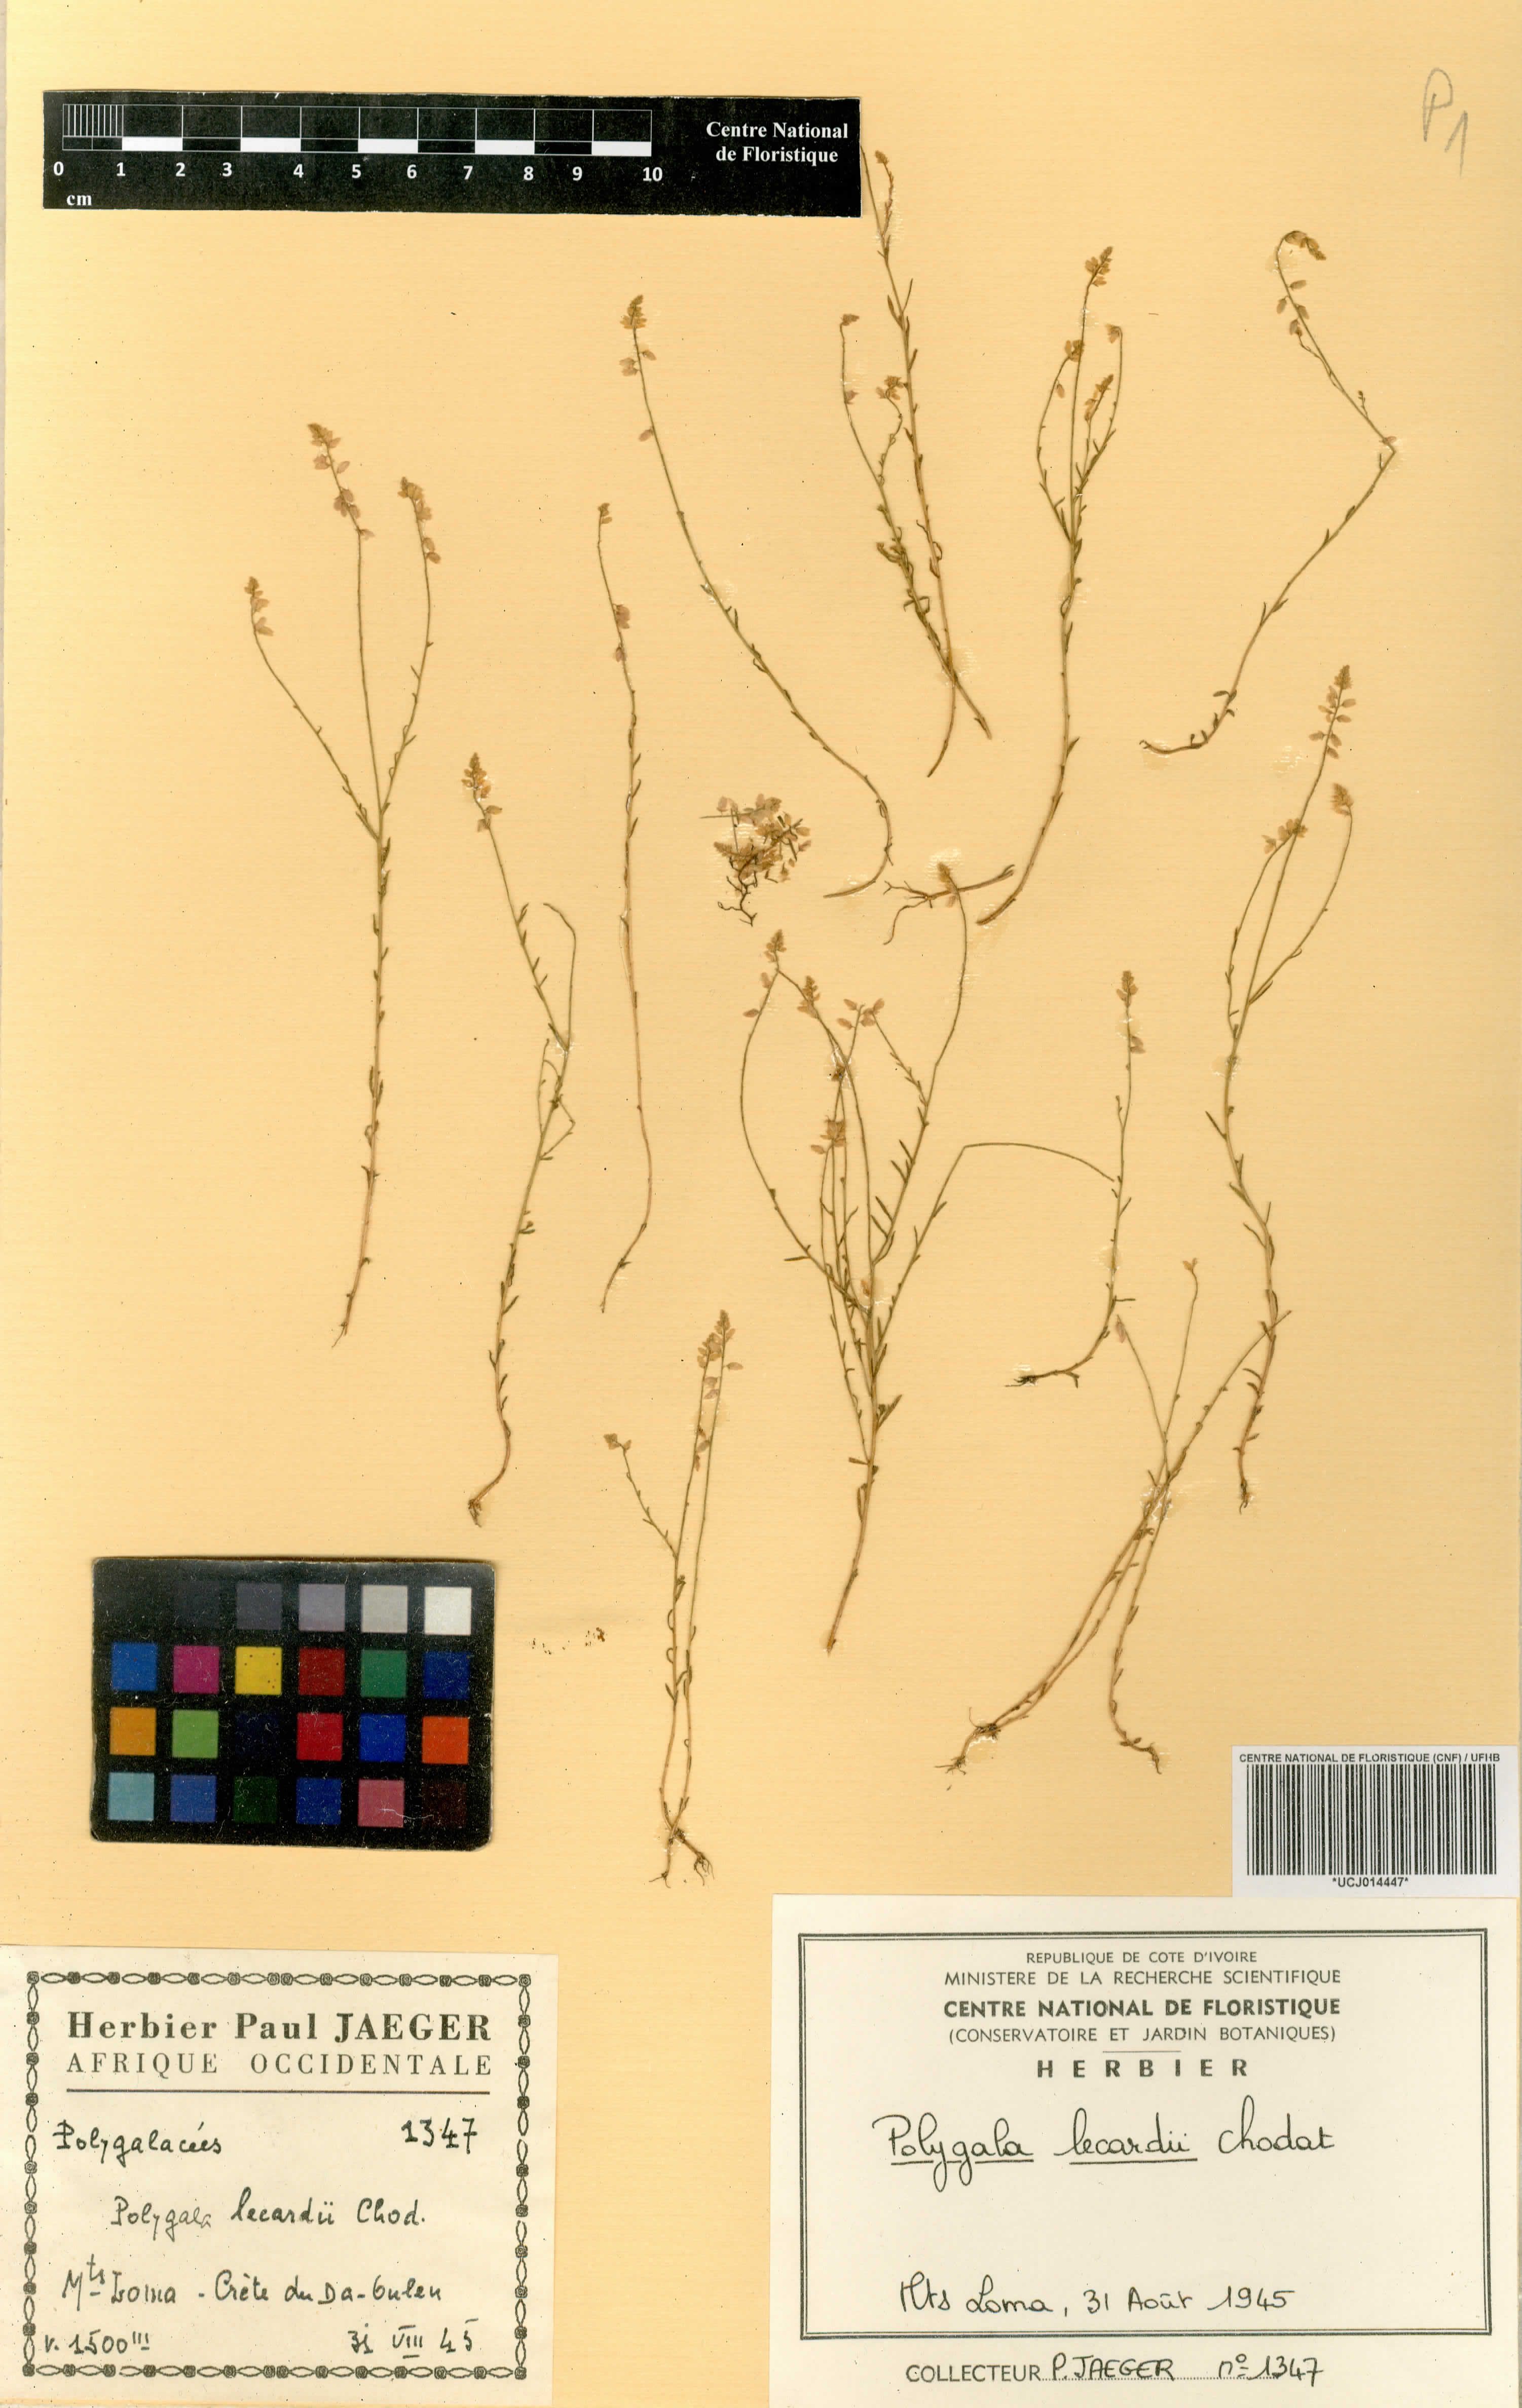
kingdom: Plantae
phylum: Tracheophyta
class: Magnoliopsida
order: Fabales
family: Polygalaceae
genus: Polygala
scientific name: Polygala lecardii
